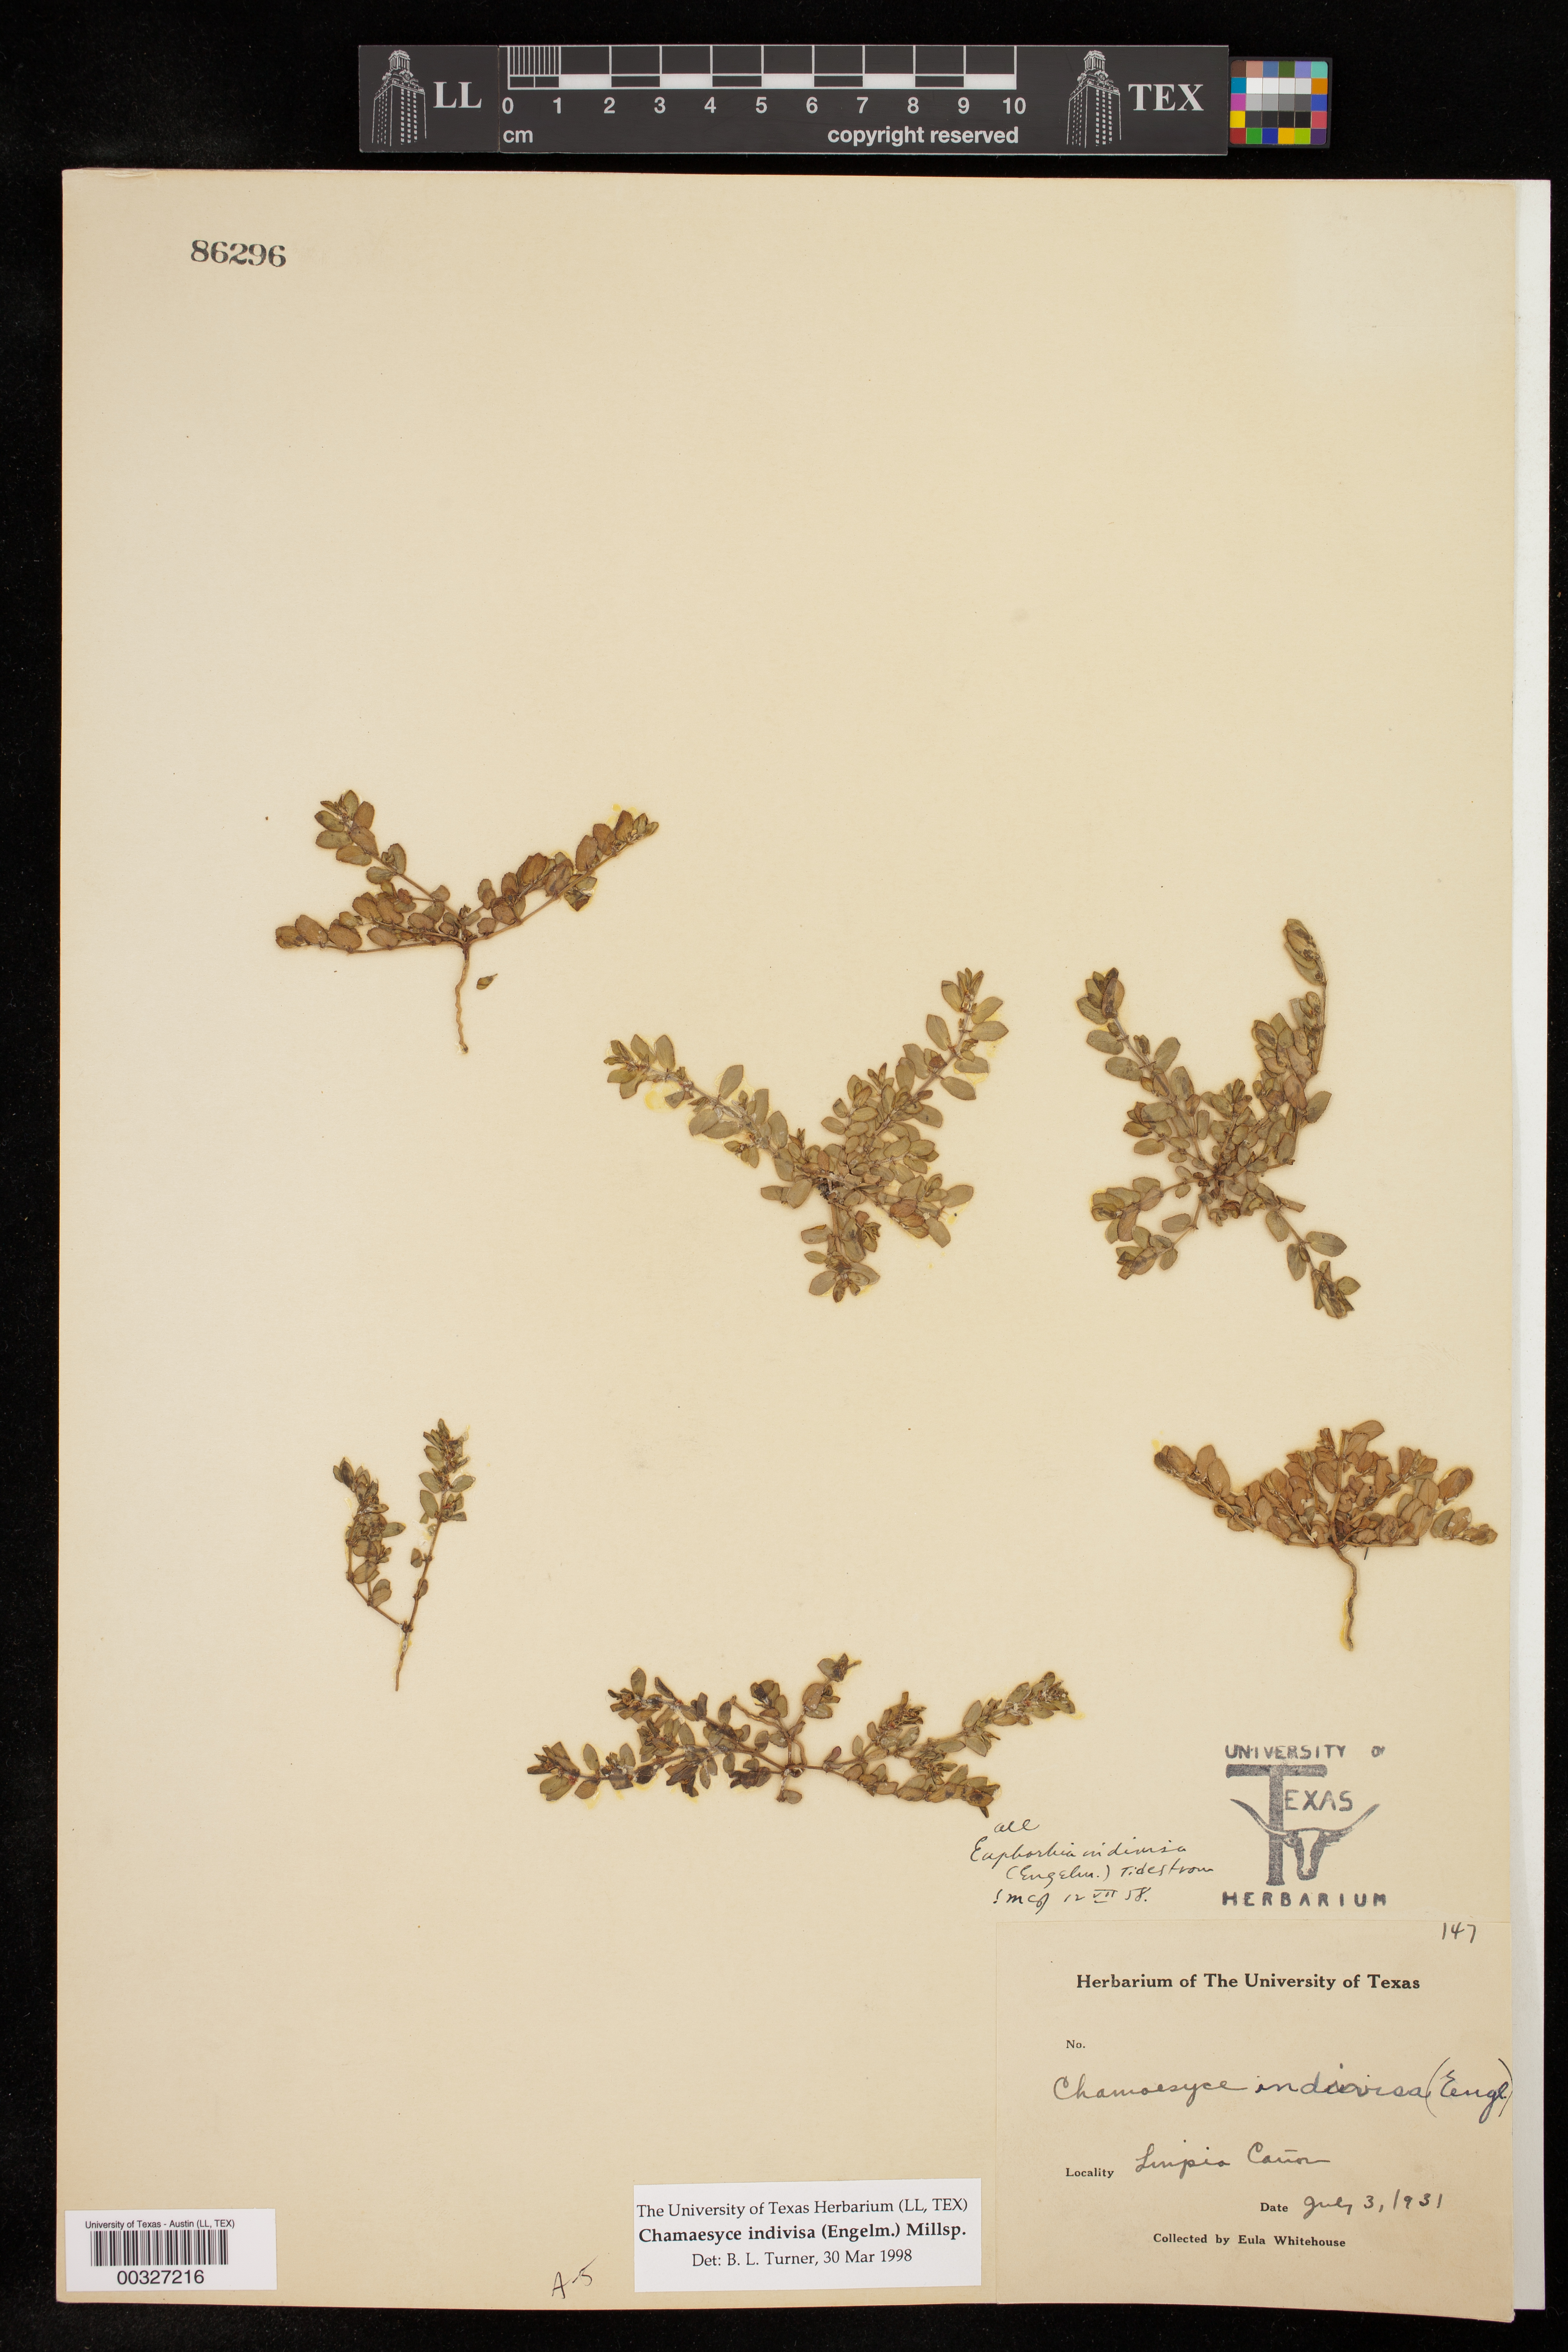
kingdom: Plantae
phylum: Tracheophyta
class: Magnoliopsida
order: Malpighiales
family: Euphorbiaceae
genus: Euphorbia
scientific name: Euphorbia indivisa
